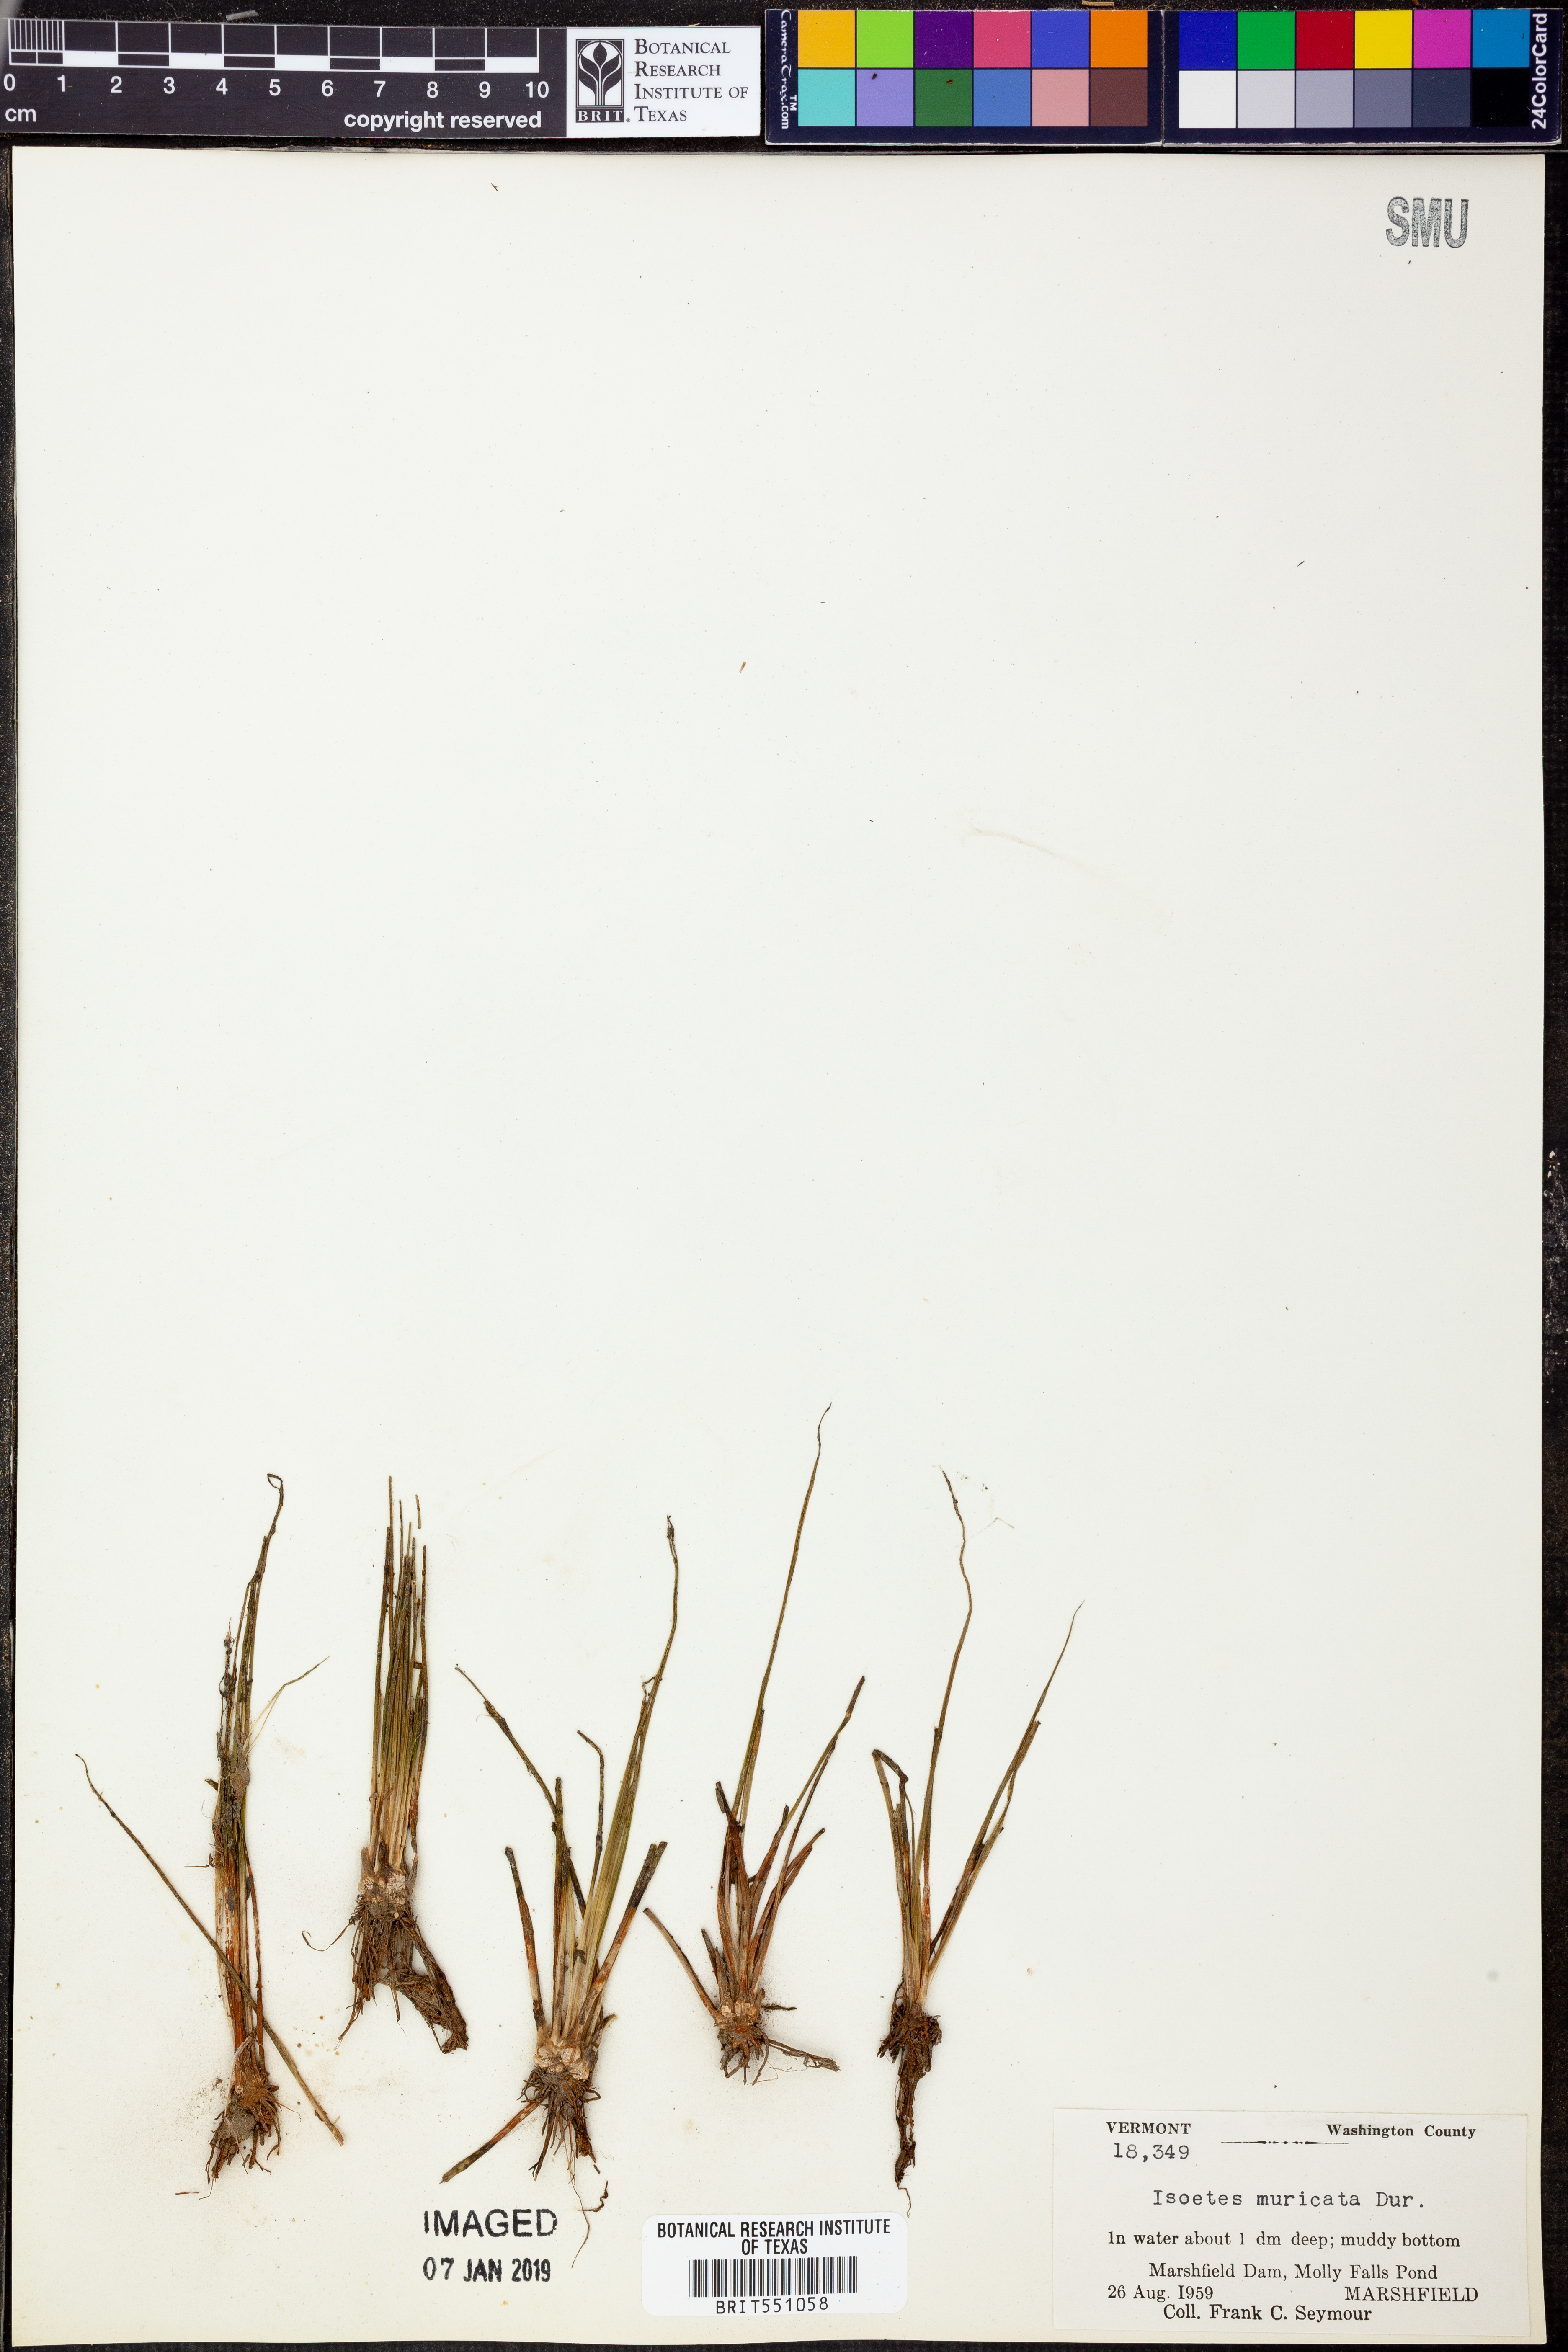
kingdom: Plantae
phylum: Tracheophyta
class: Lycopodiopsida
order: Isoetales
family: Isoetaceae
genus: Isoetes
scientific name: Isoetes echinospora
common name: Spring quillwort
